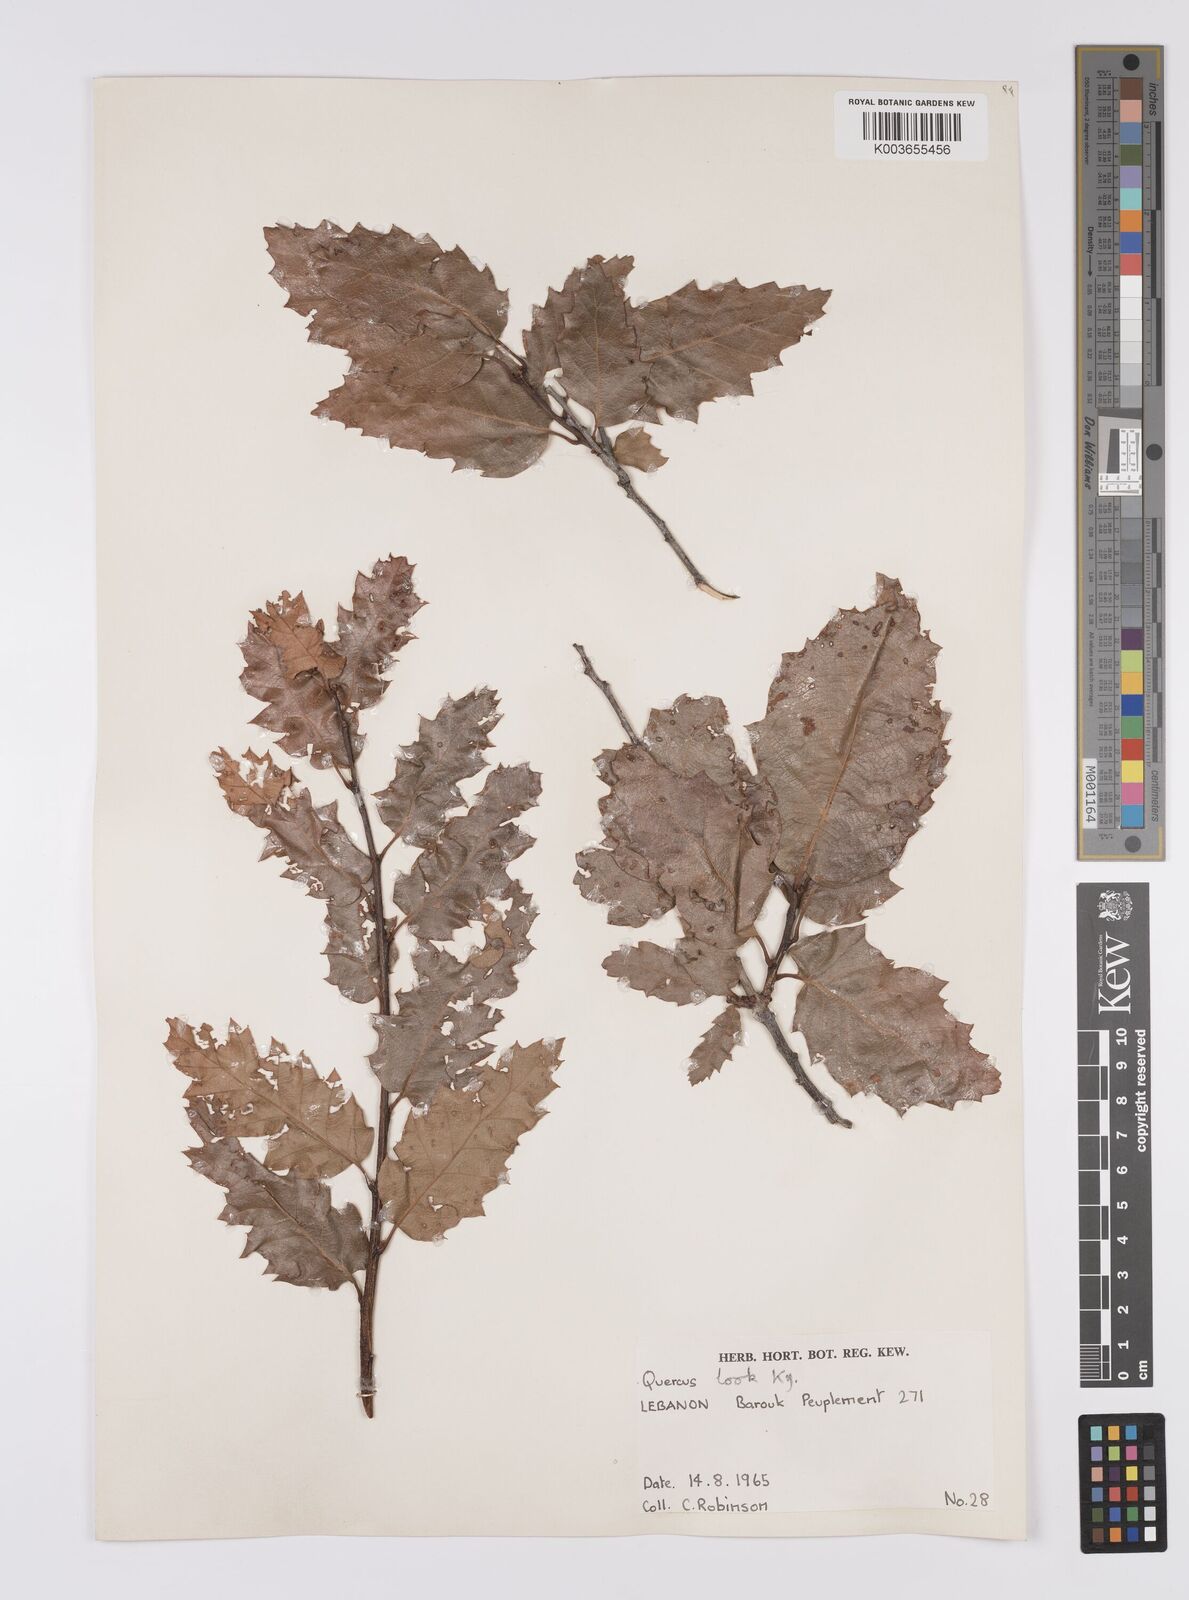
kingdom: Plantae
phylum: Tracheophyta
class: Magnoliopsida
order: Fagales
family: Fagaceae
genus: Quercus
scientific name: Quercus look
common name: Look oak
